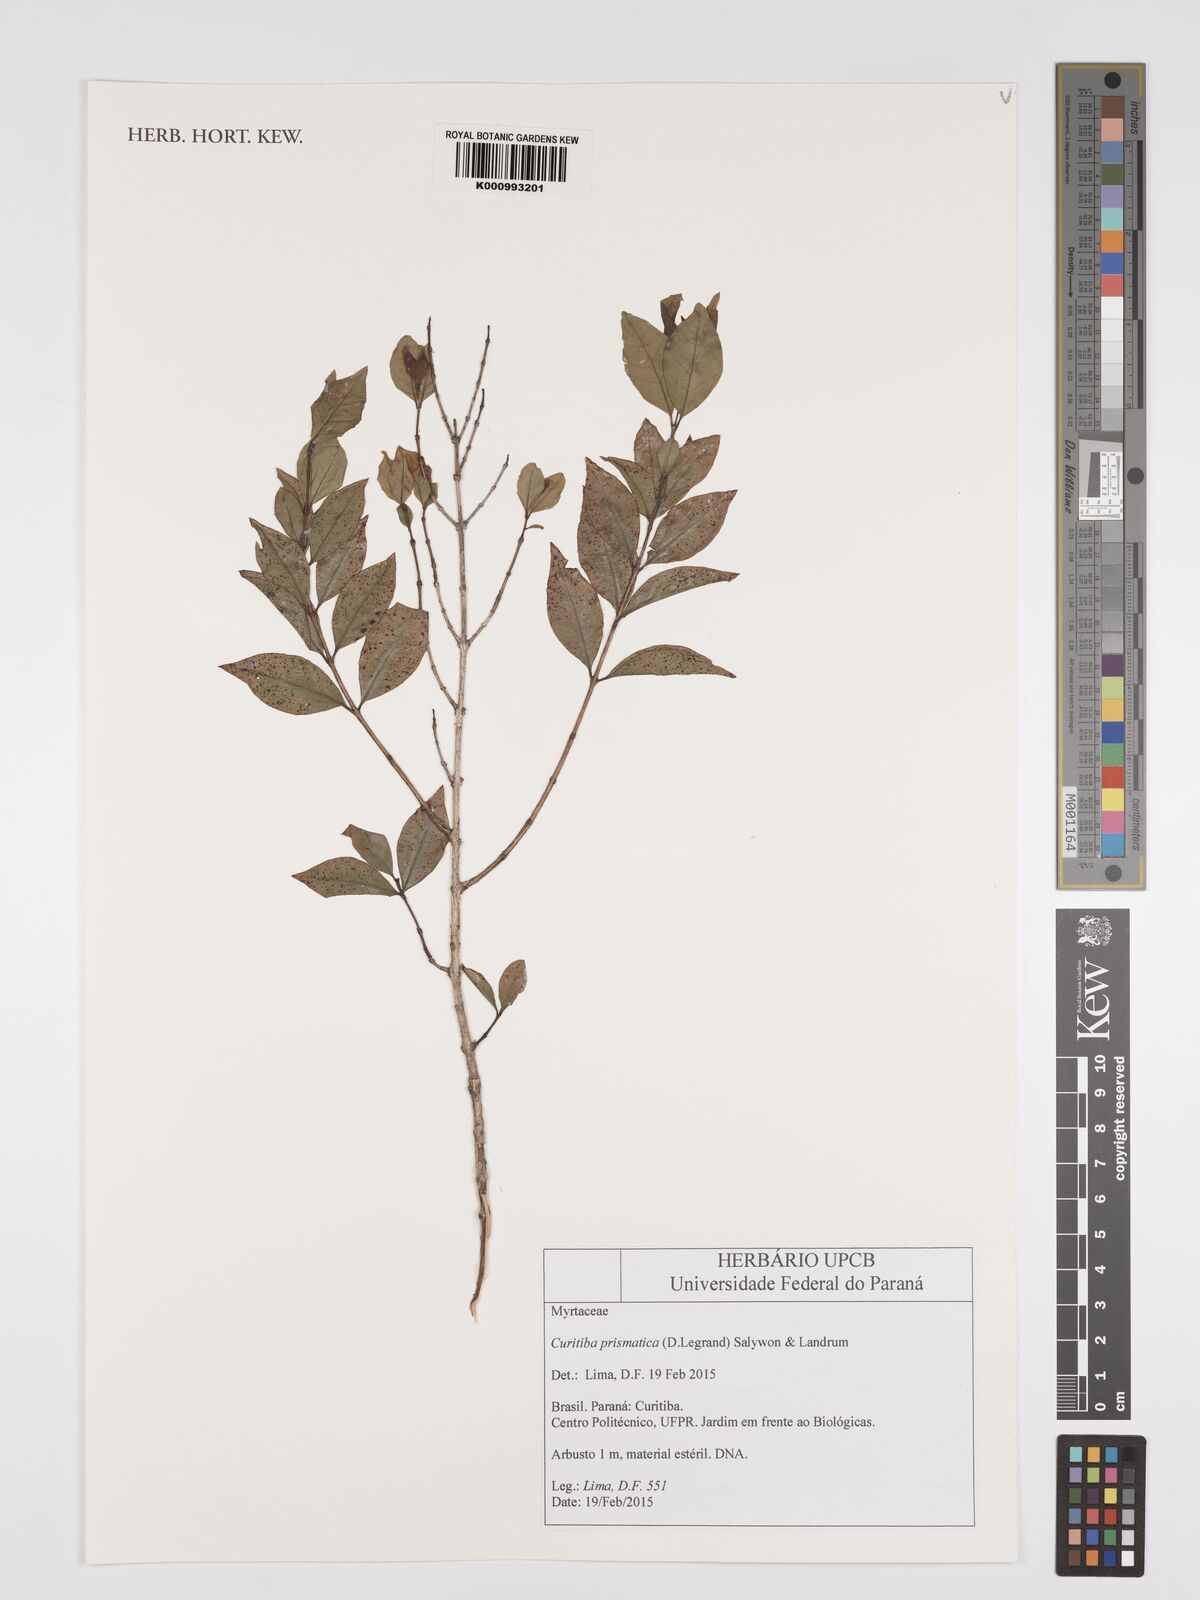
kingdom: Plantae
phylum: Tracheophyta
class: Magnoliopsida
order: Myrtales
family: Myrtaceae
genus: Curitiba
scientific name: Curitiba prismatica
